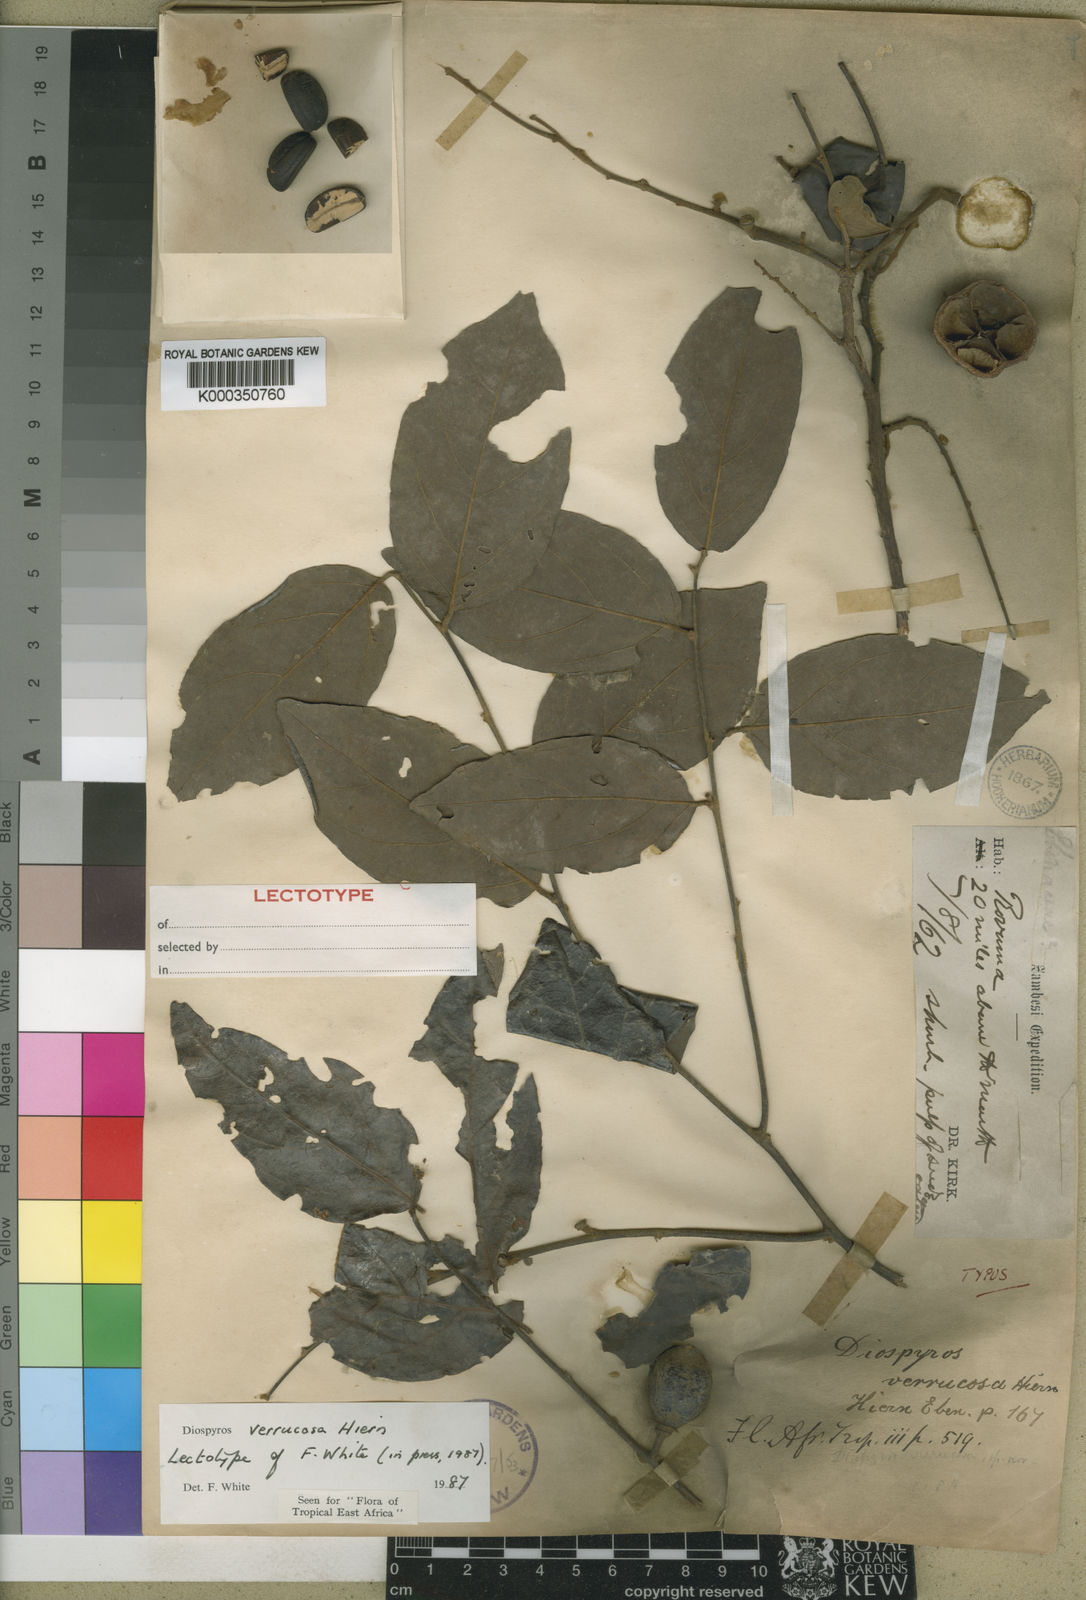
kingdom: Plantae
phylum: Tracheophyta
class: Magnoliopsida
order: Ericales
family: Ebenaceae
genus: Diospyros
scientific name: Diospyros verrucosa
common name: Warty star-apple
